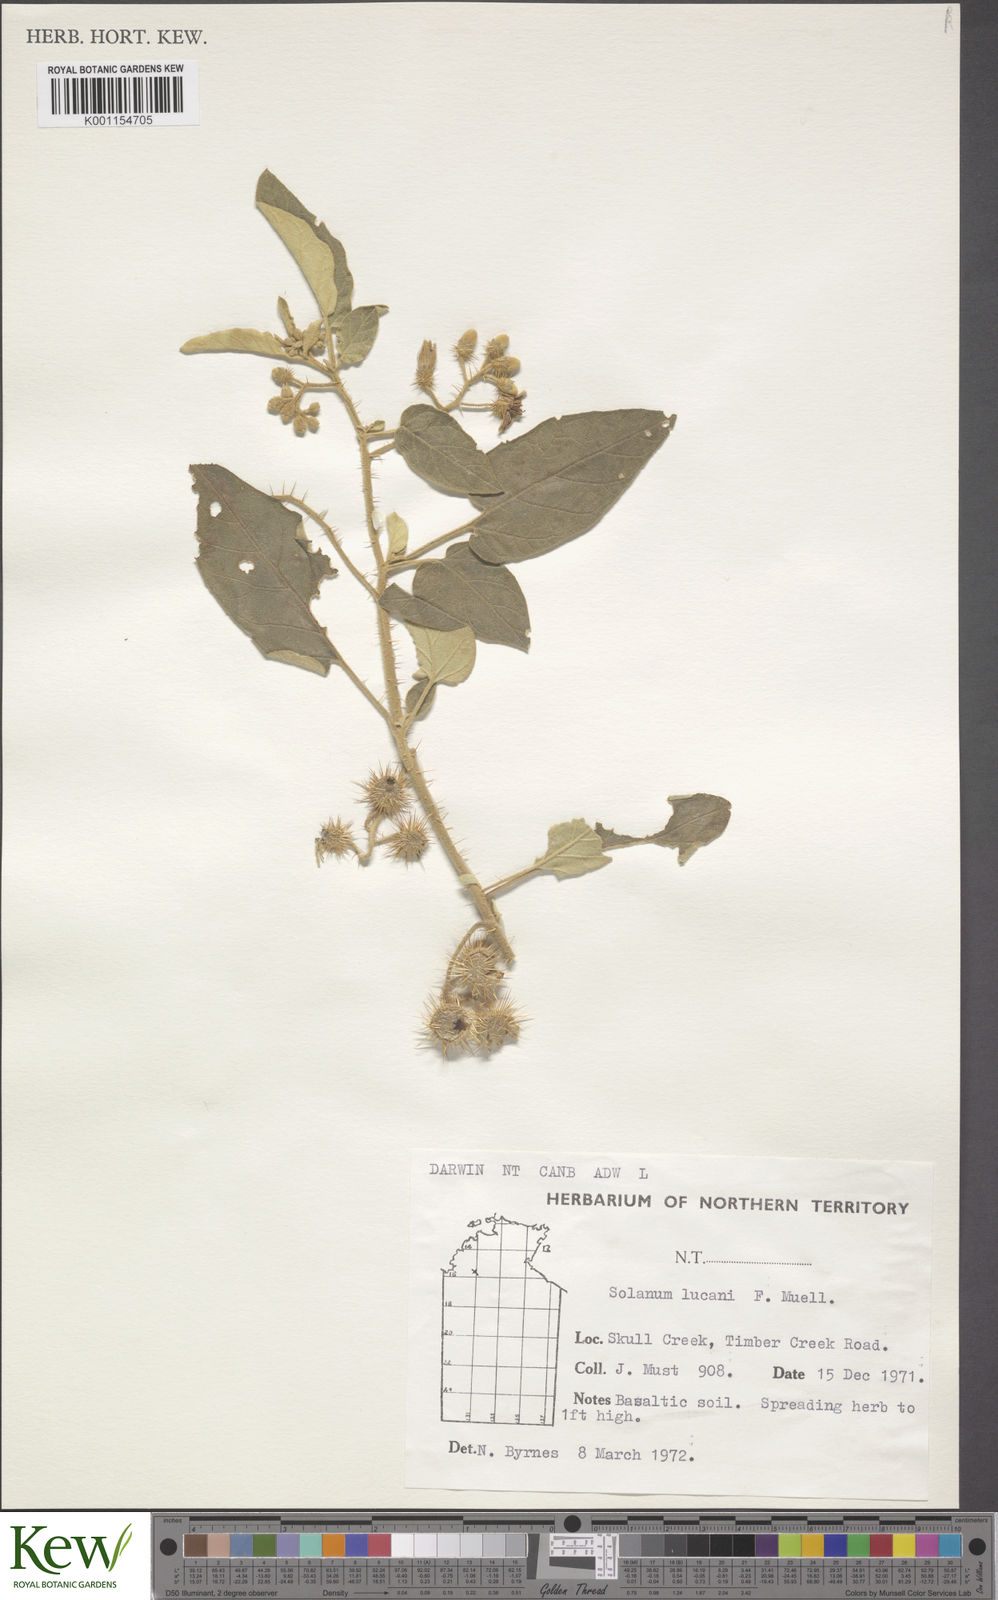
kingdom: Plantae
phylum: Tracheophyta
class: Magnoliopsida
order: Solanales
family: Solanaceae
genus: Solanum
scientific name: Solanum lucani
